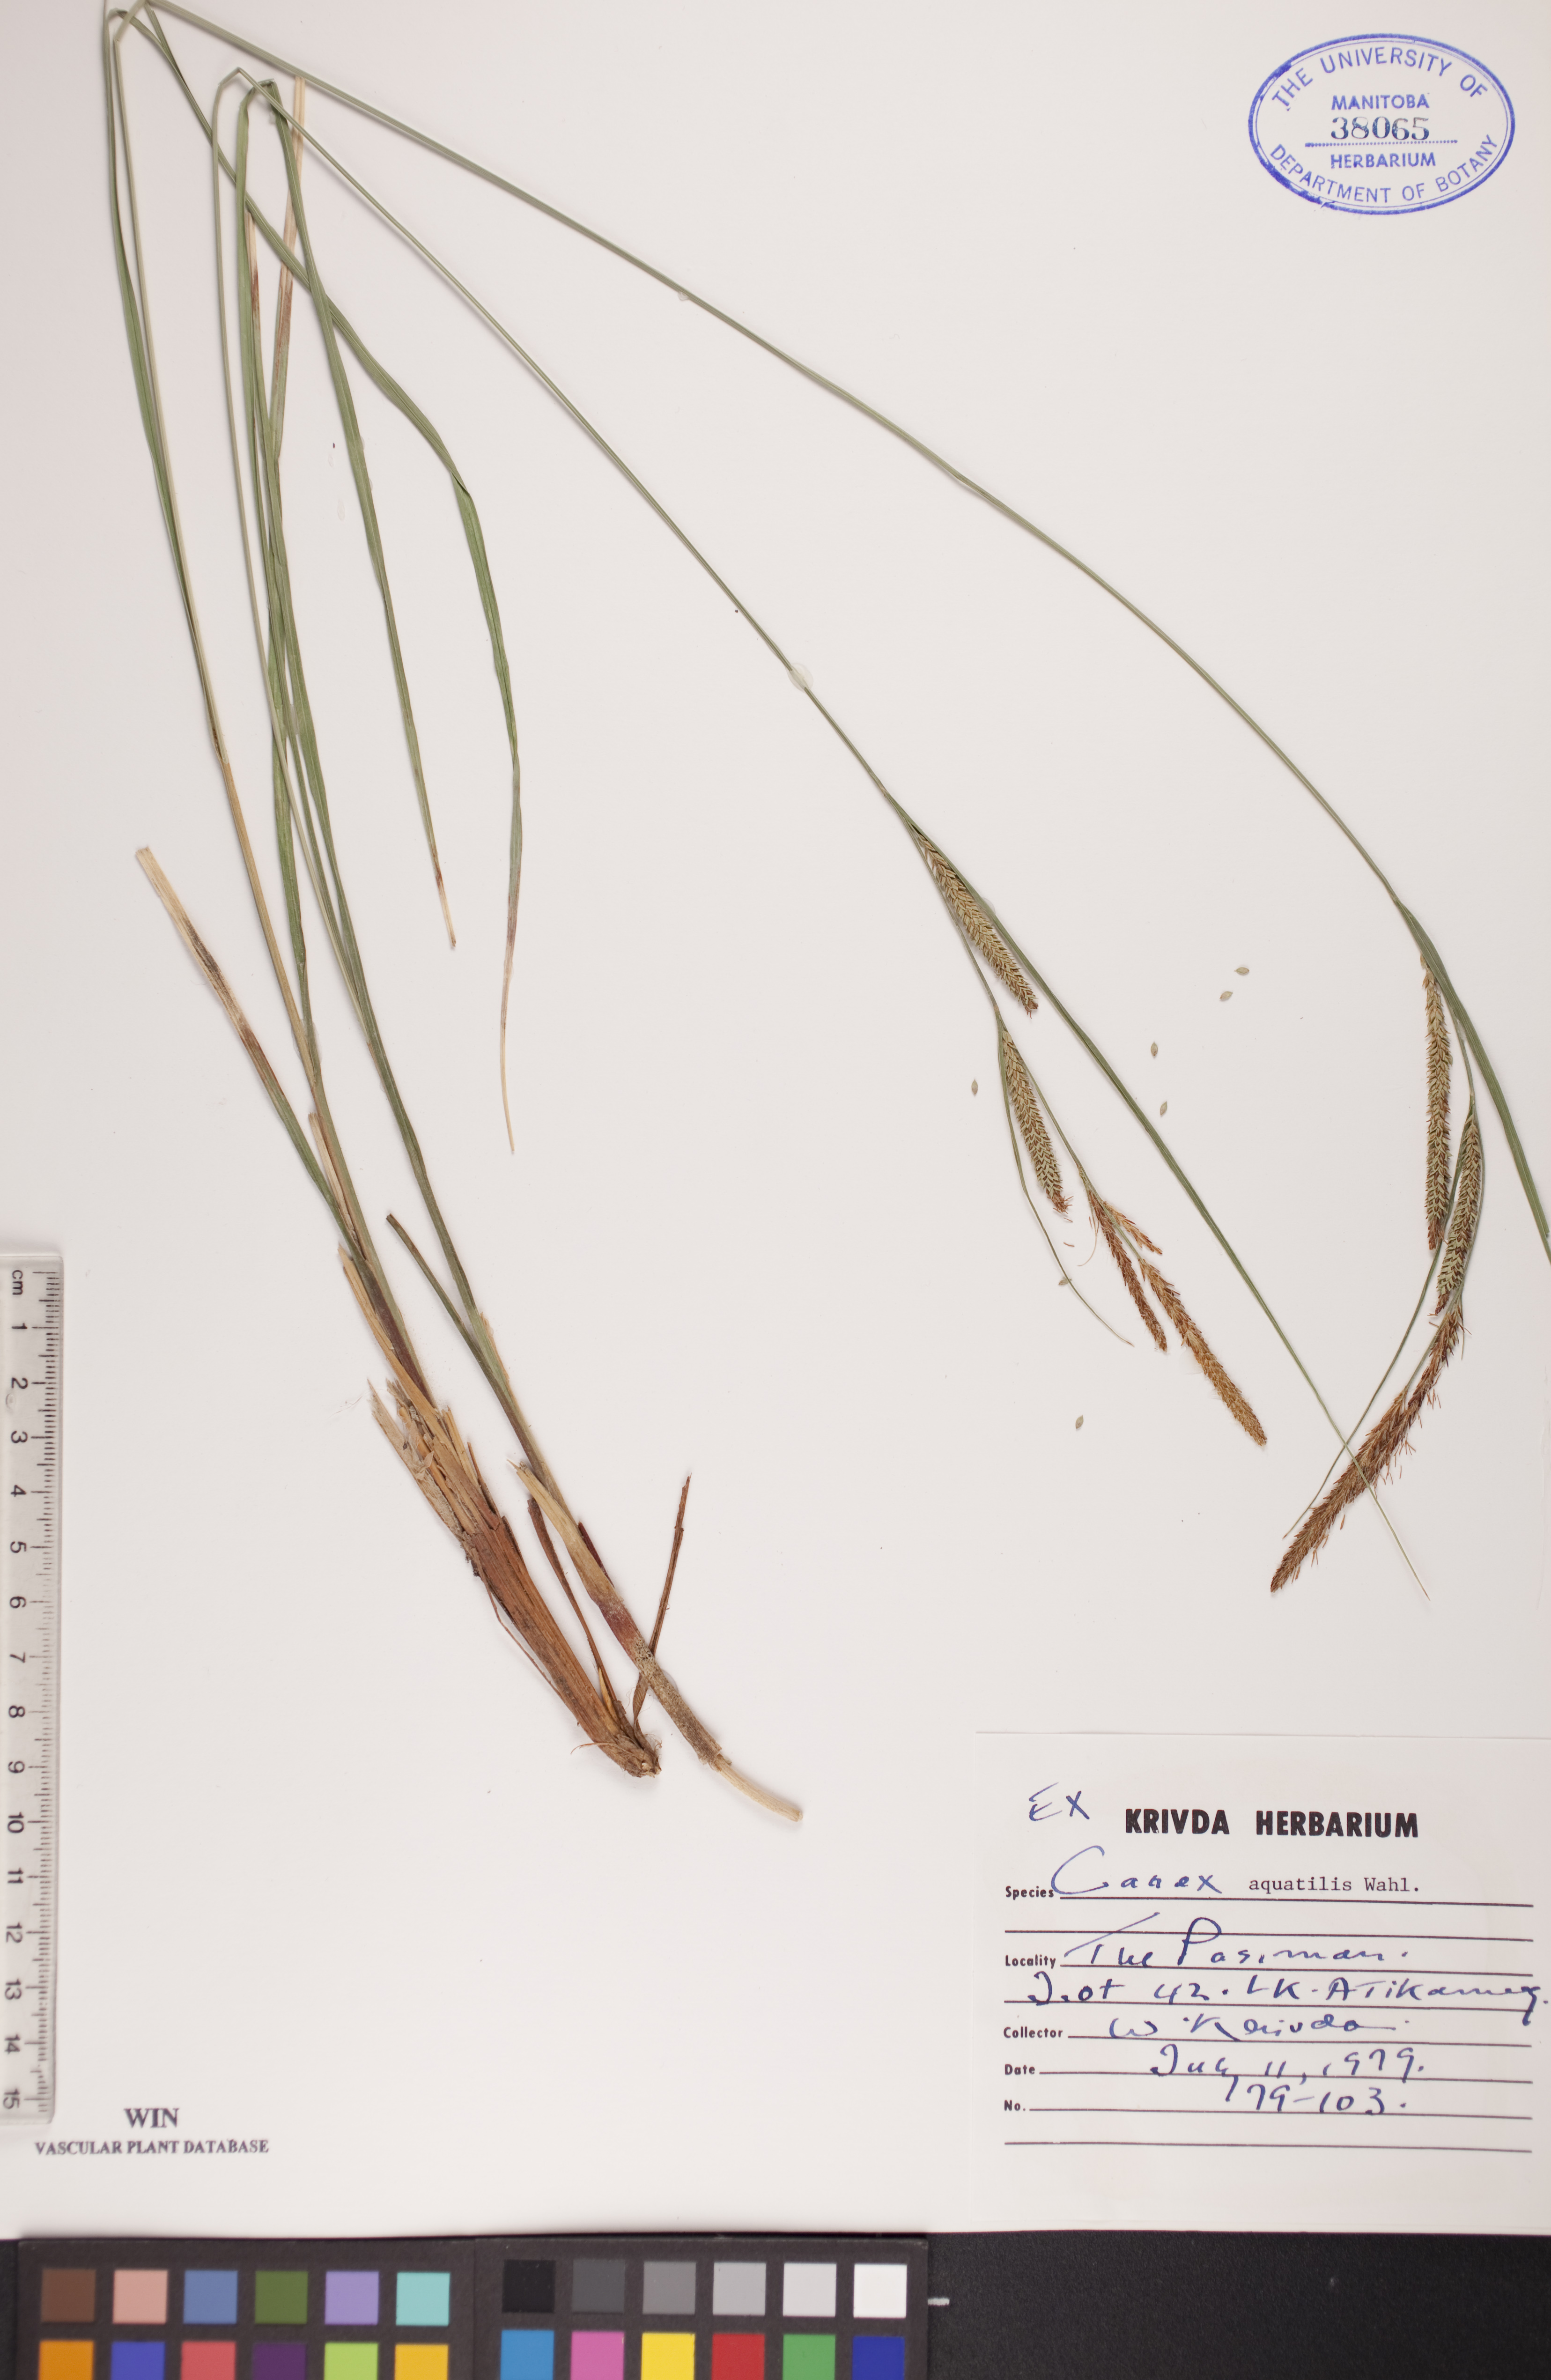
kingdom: Plantae
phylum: Tracheophyta
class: Liliopsida
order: Poales
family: Cyperaceae
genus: Carex
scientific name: Carex aquatilis
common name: Water sedge
